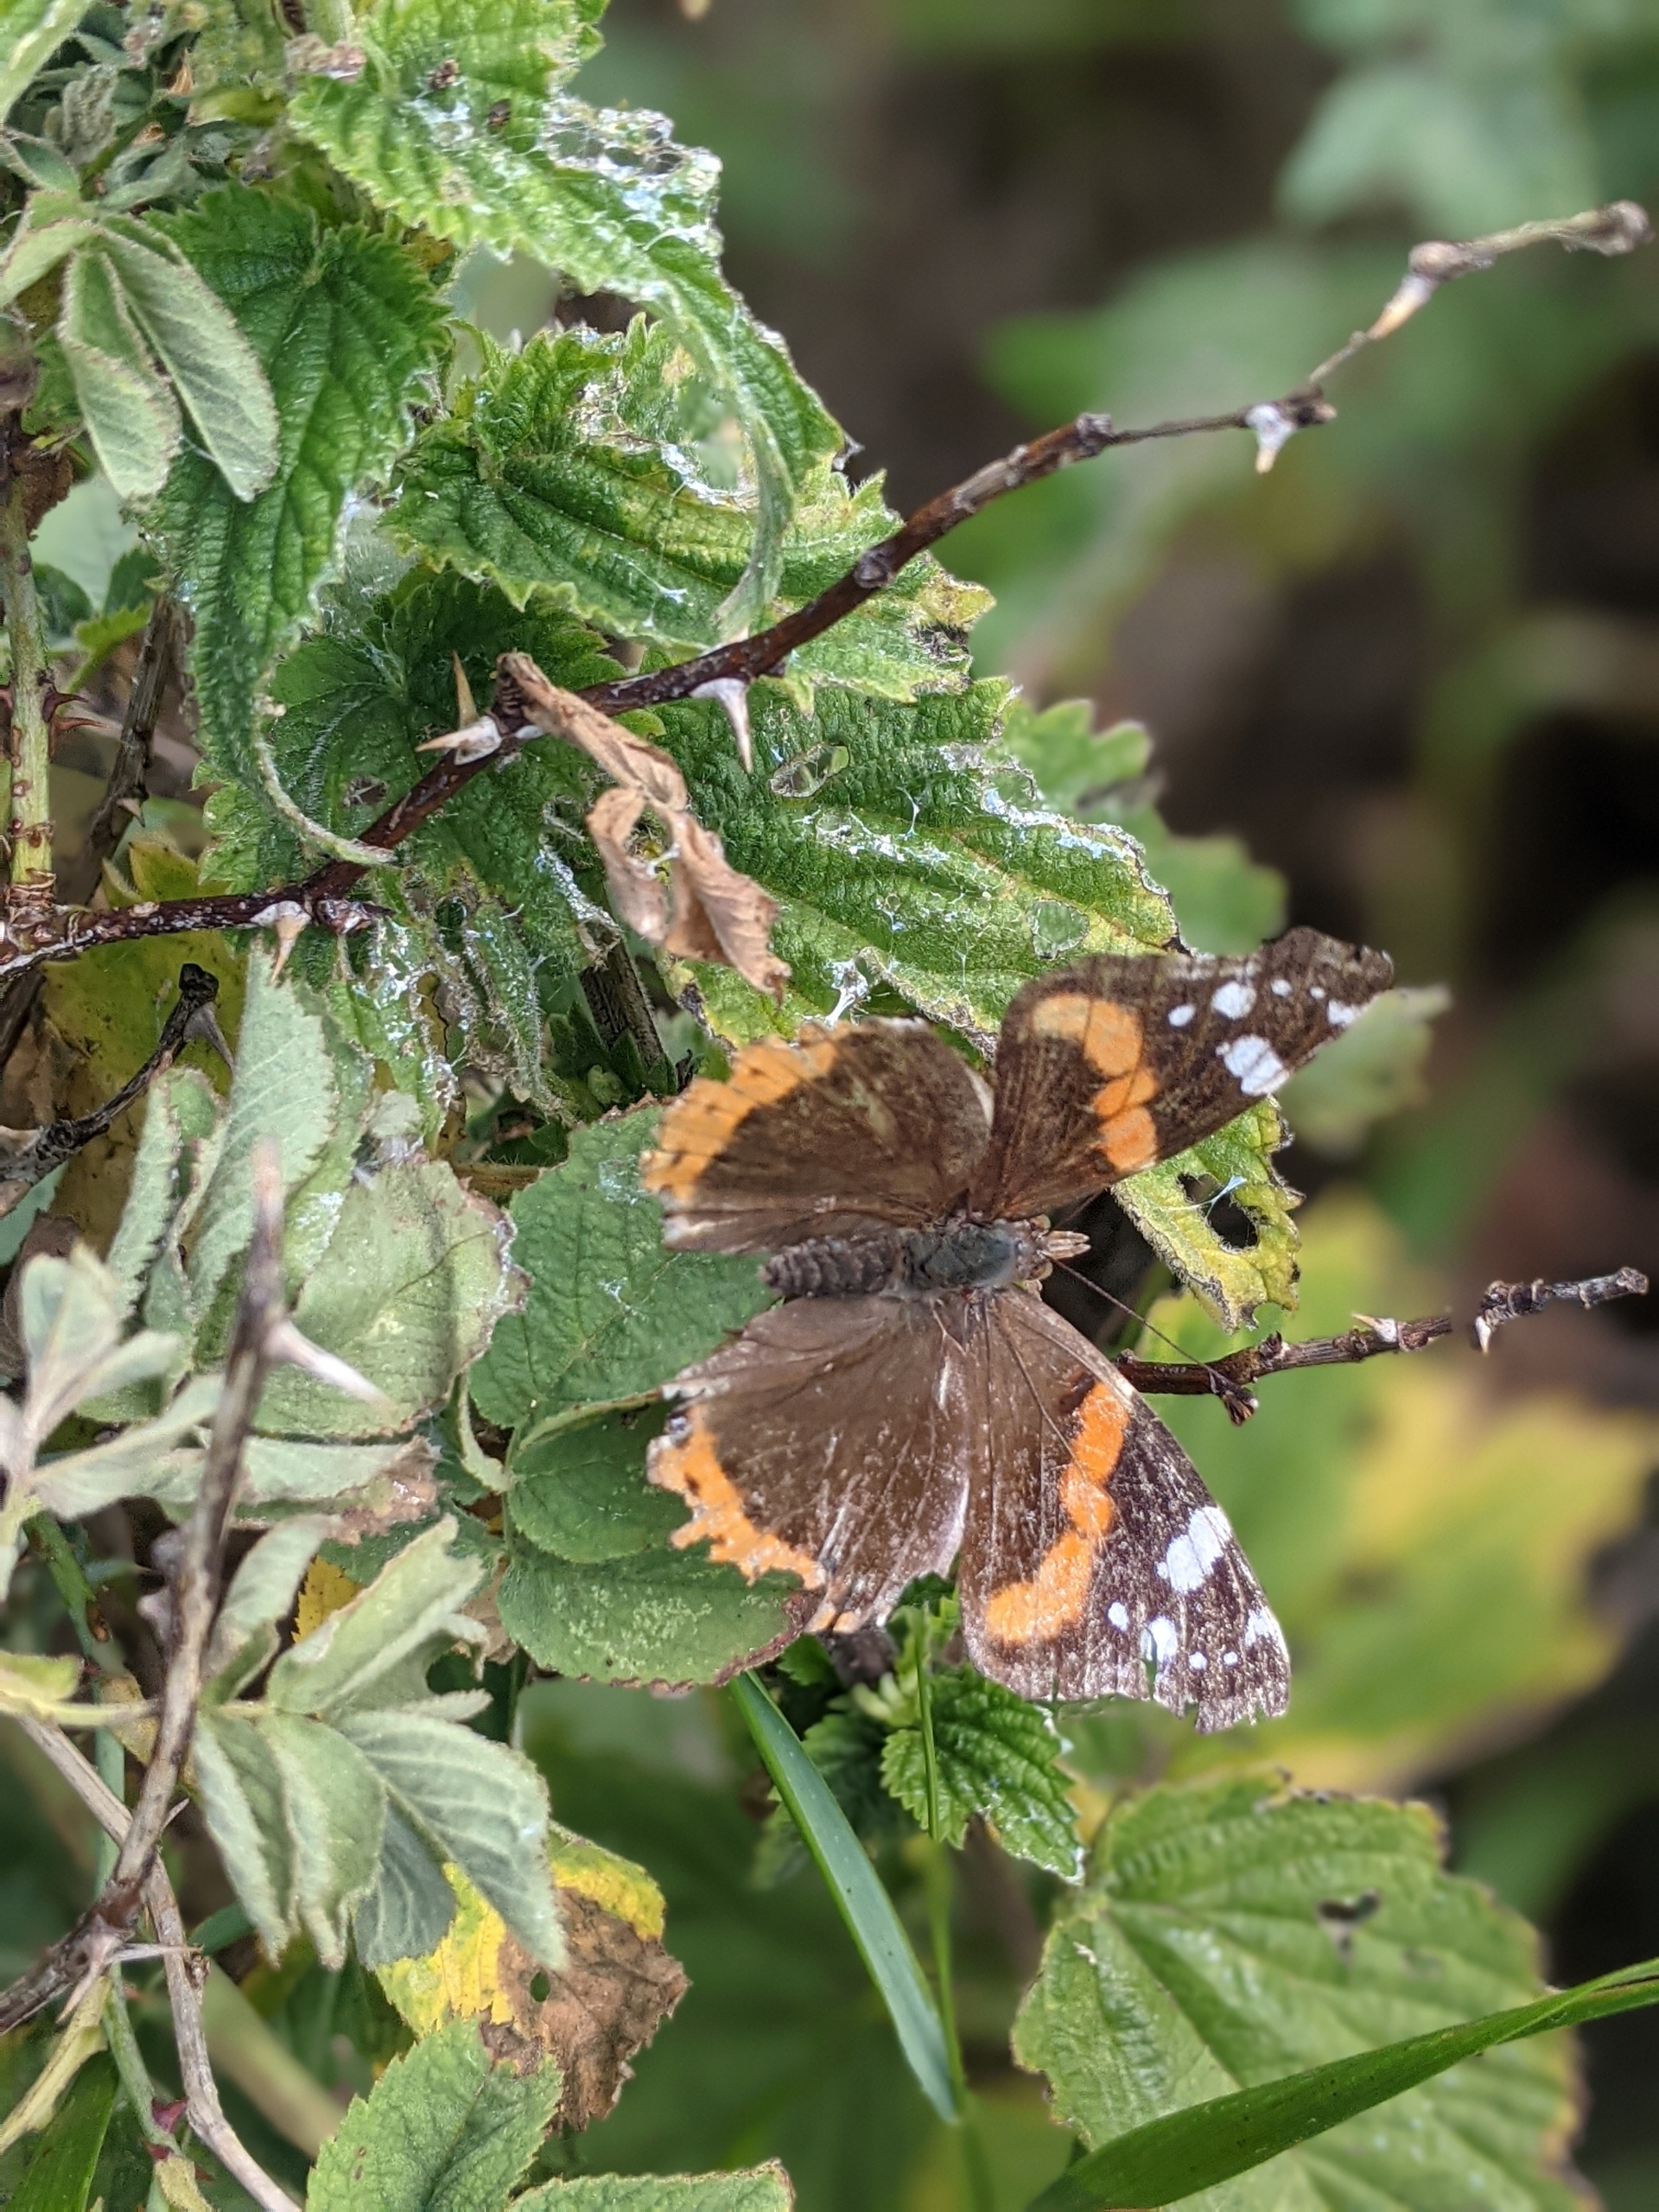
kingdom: Animalia
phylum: Arthropoda
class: Insecta
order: Lepidoptera
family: Nymphalidae
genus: Vanessa
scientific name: Vanessa atalanta
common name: Admiral
